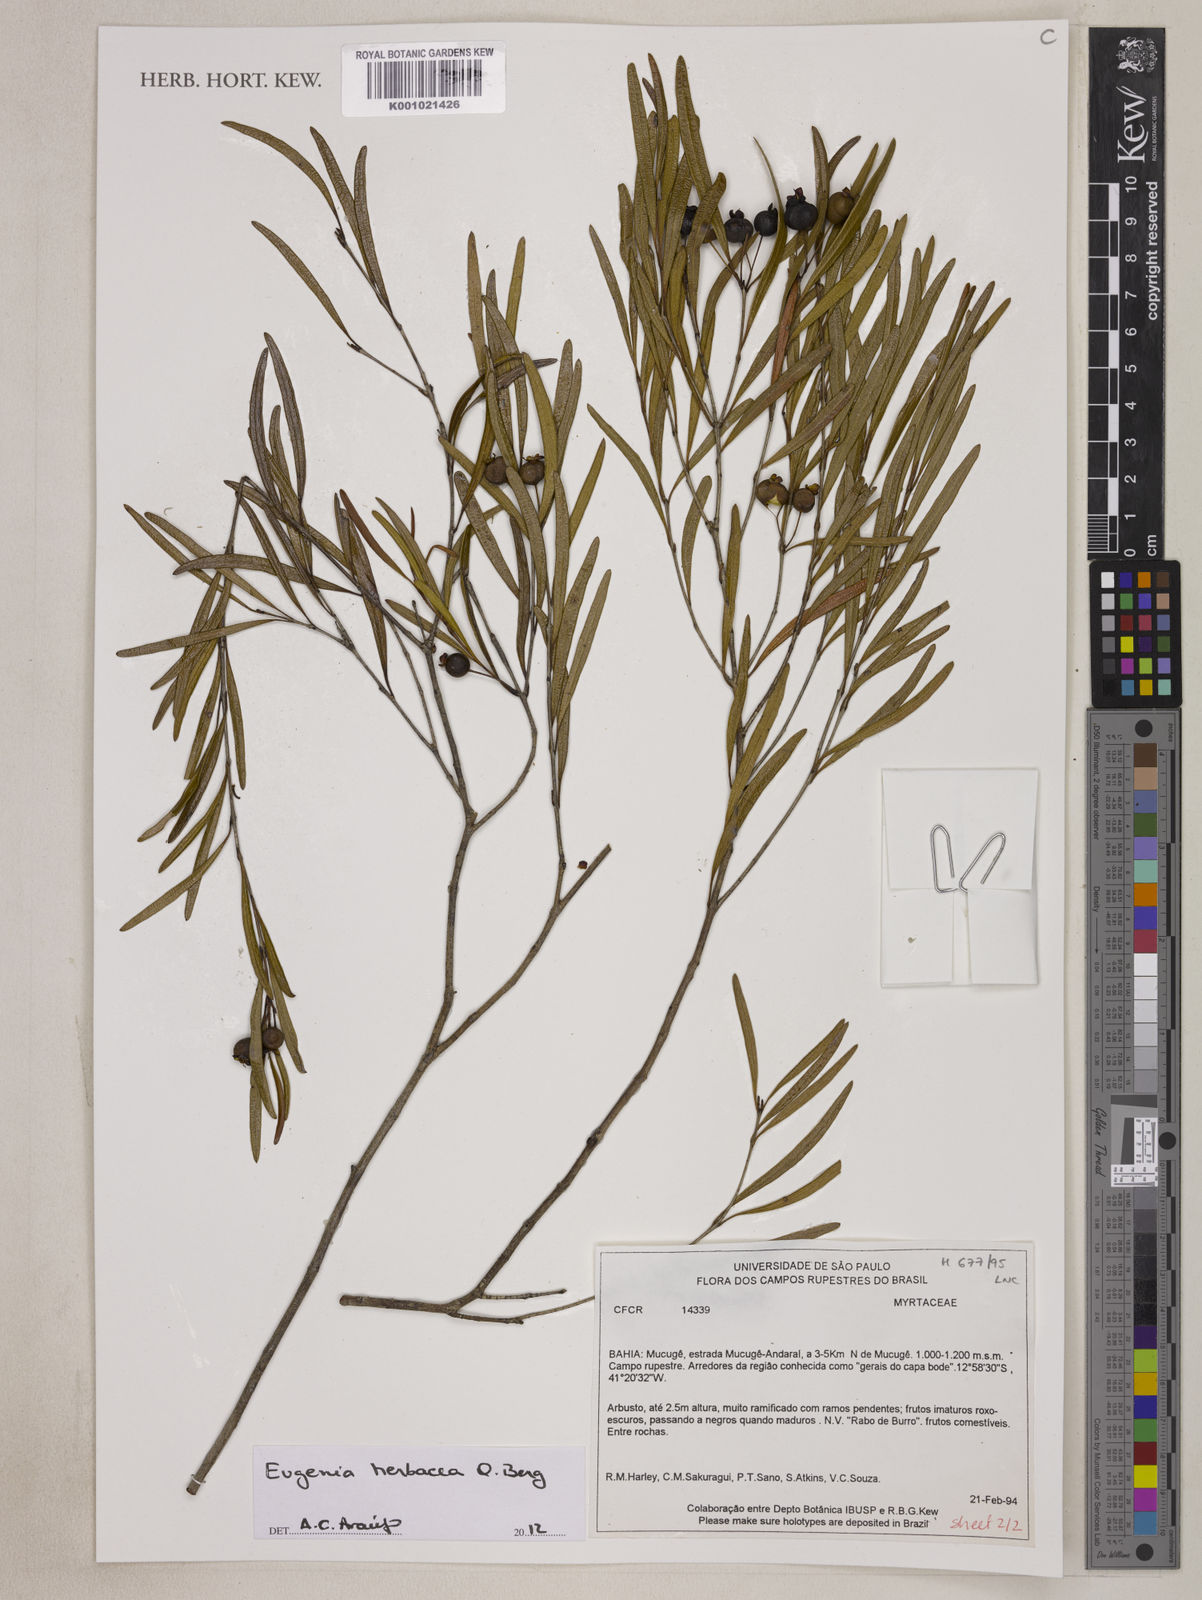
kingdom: Plantae
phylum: Tracheophyta
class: Magnoliopsida
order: Myrtales
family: Myrtaceae
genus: Eugenia
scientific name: Eugenia herbacea
